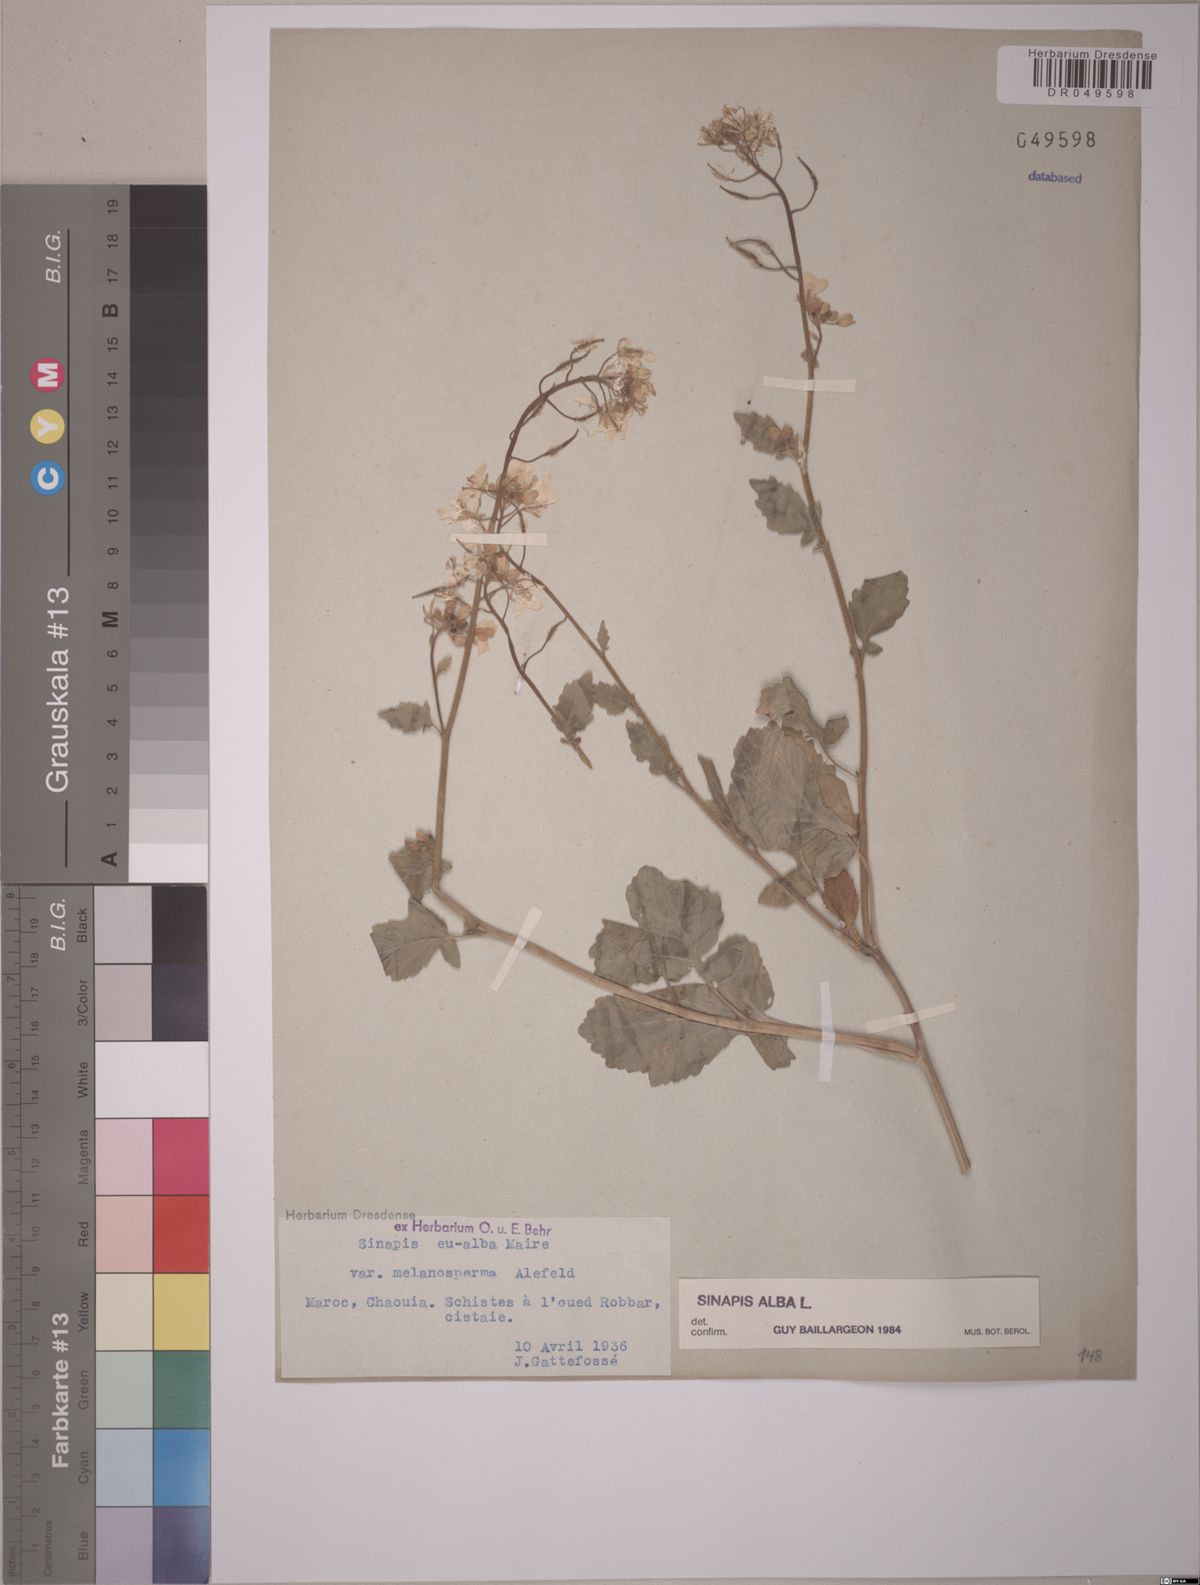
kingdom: Plantae
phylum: Tracheophyta
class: Magnoliopsida
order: Brassicales
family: Brassicaceae
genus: Sinapis
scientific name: Sinapis alba
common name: White mustard
